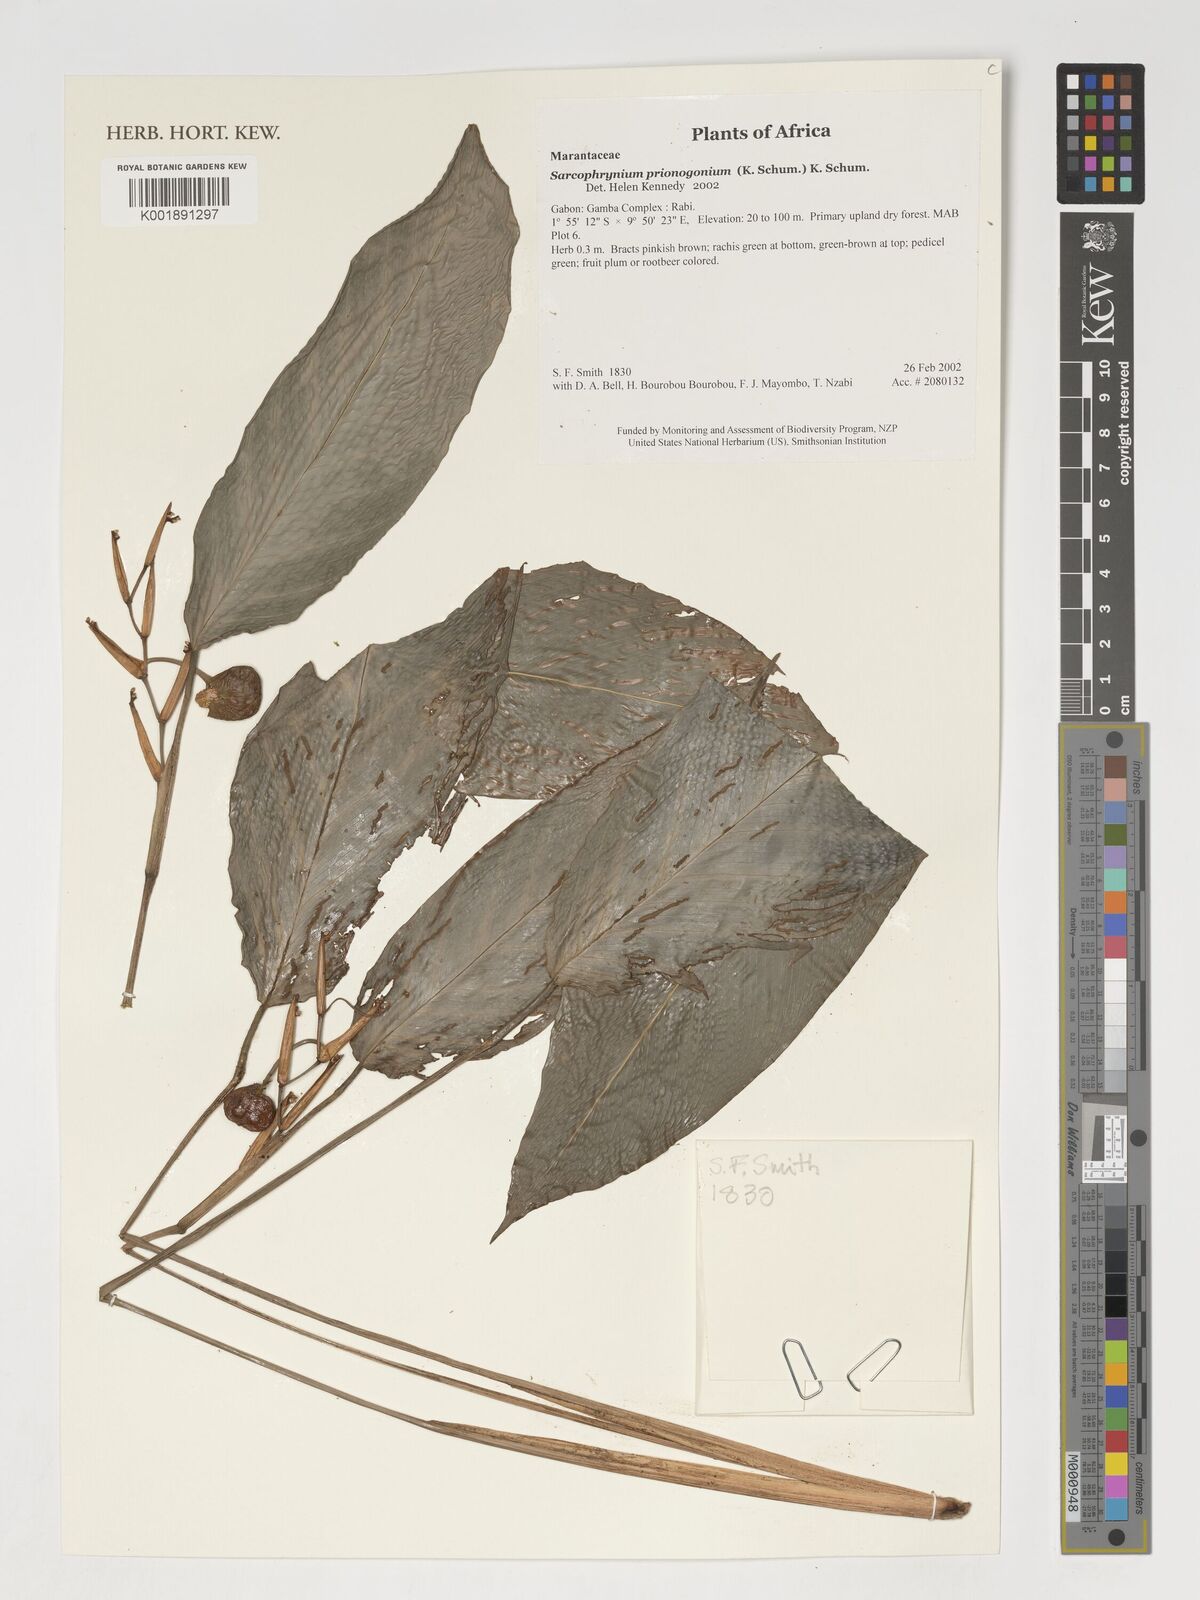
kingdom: Plantae
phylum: Tracheophyta
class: Liliopsida
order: Zingiberales
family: Marantaceae
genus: Sarcophrynium
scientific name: Sarcophrynium prionogonium
